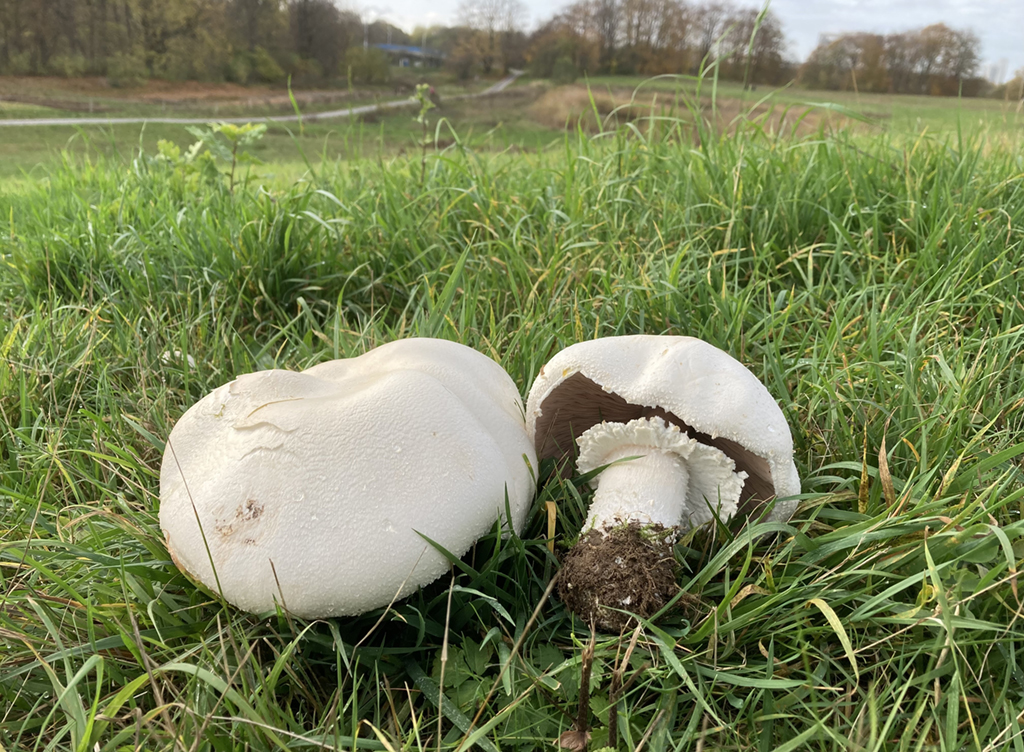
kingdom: Fungi
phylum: Basidiomycota
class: Agaricomycetes
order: Agaricales
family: Agaricaceae
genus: Agaricus
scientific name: Agaricus crocodilinus
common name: landsby-champignon
